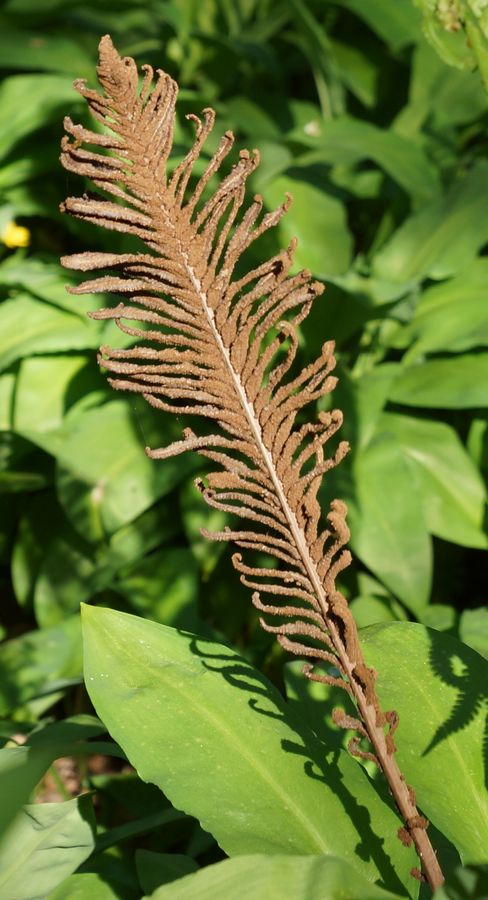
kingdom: Plantae
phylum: Tracheophyta
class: Polypodiopsida
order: Polypodiales
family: Onocleaceae
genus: Matteuccia
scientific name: Matteuccia struthiopteris
